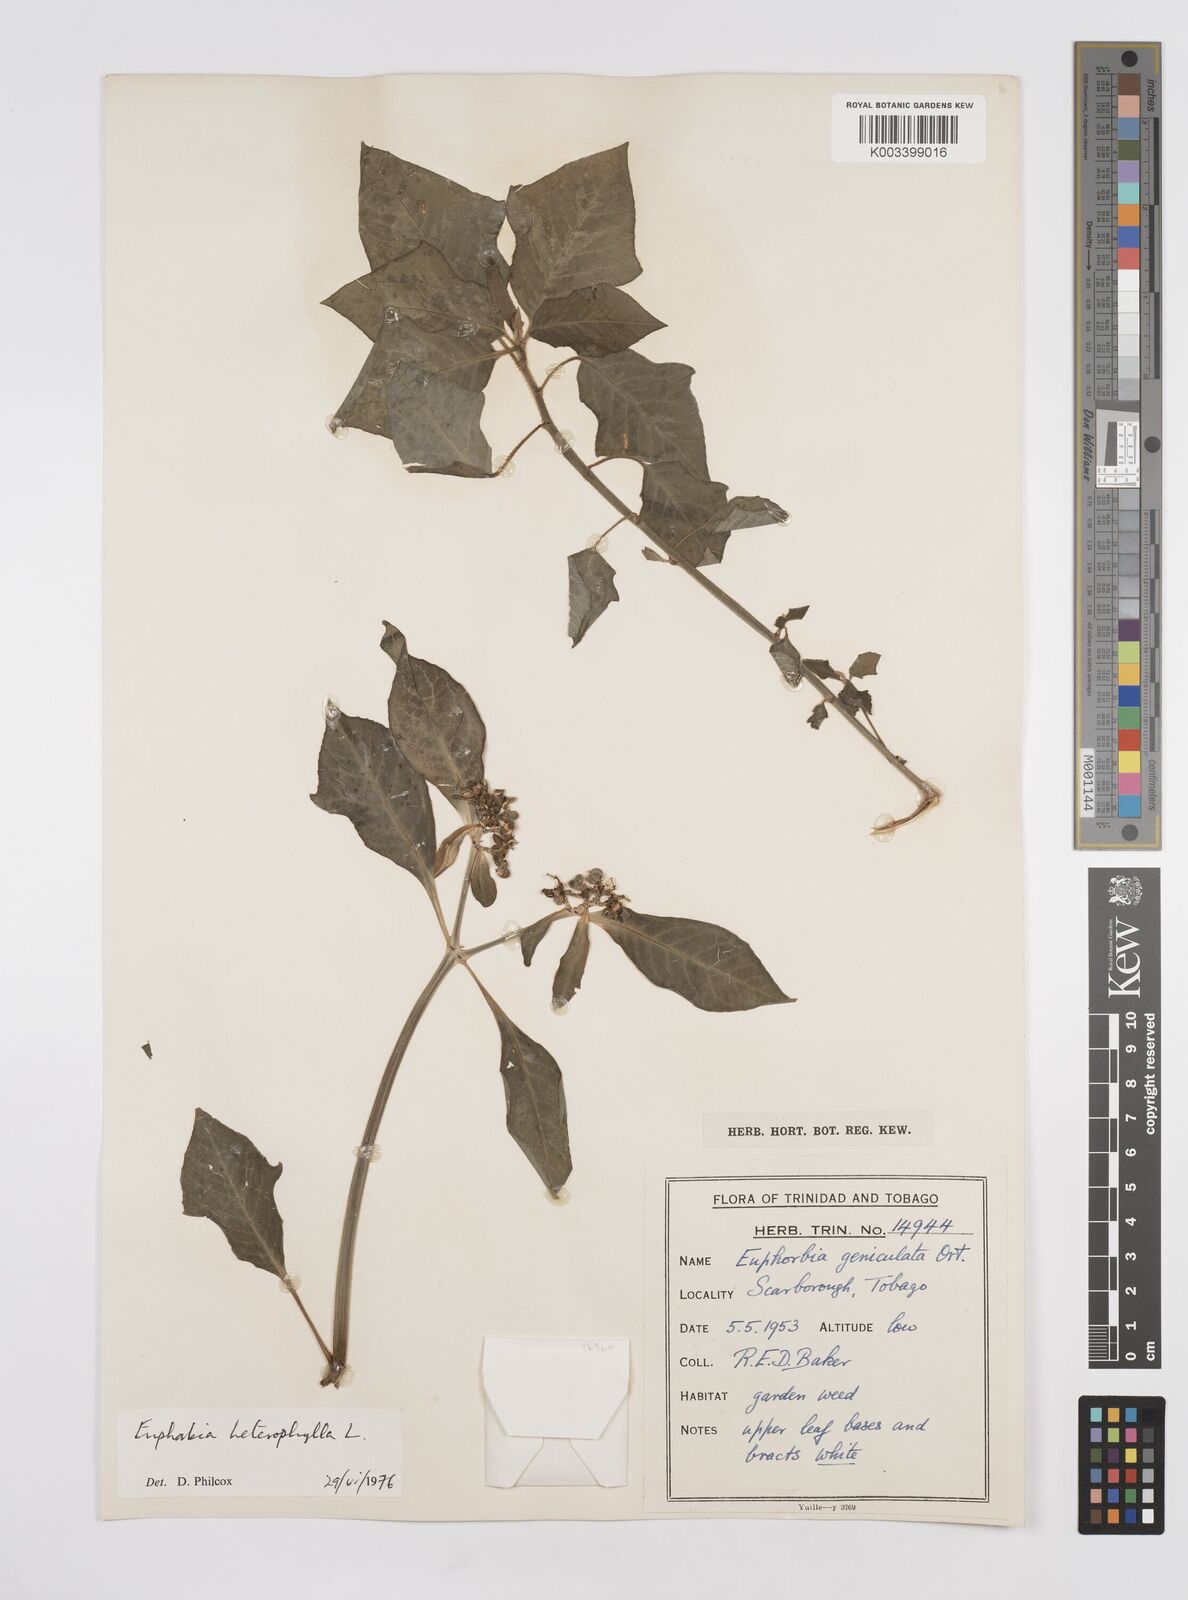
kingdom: Plantae
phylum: Tracheophyta
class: Magnoliopsida
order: Malpighiales
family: Euphorbiaceae
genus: Euphorbia
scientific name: Euphorbia heterophylla
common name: Mexican fireplant
